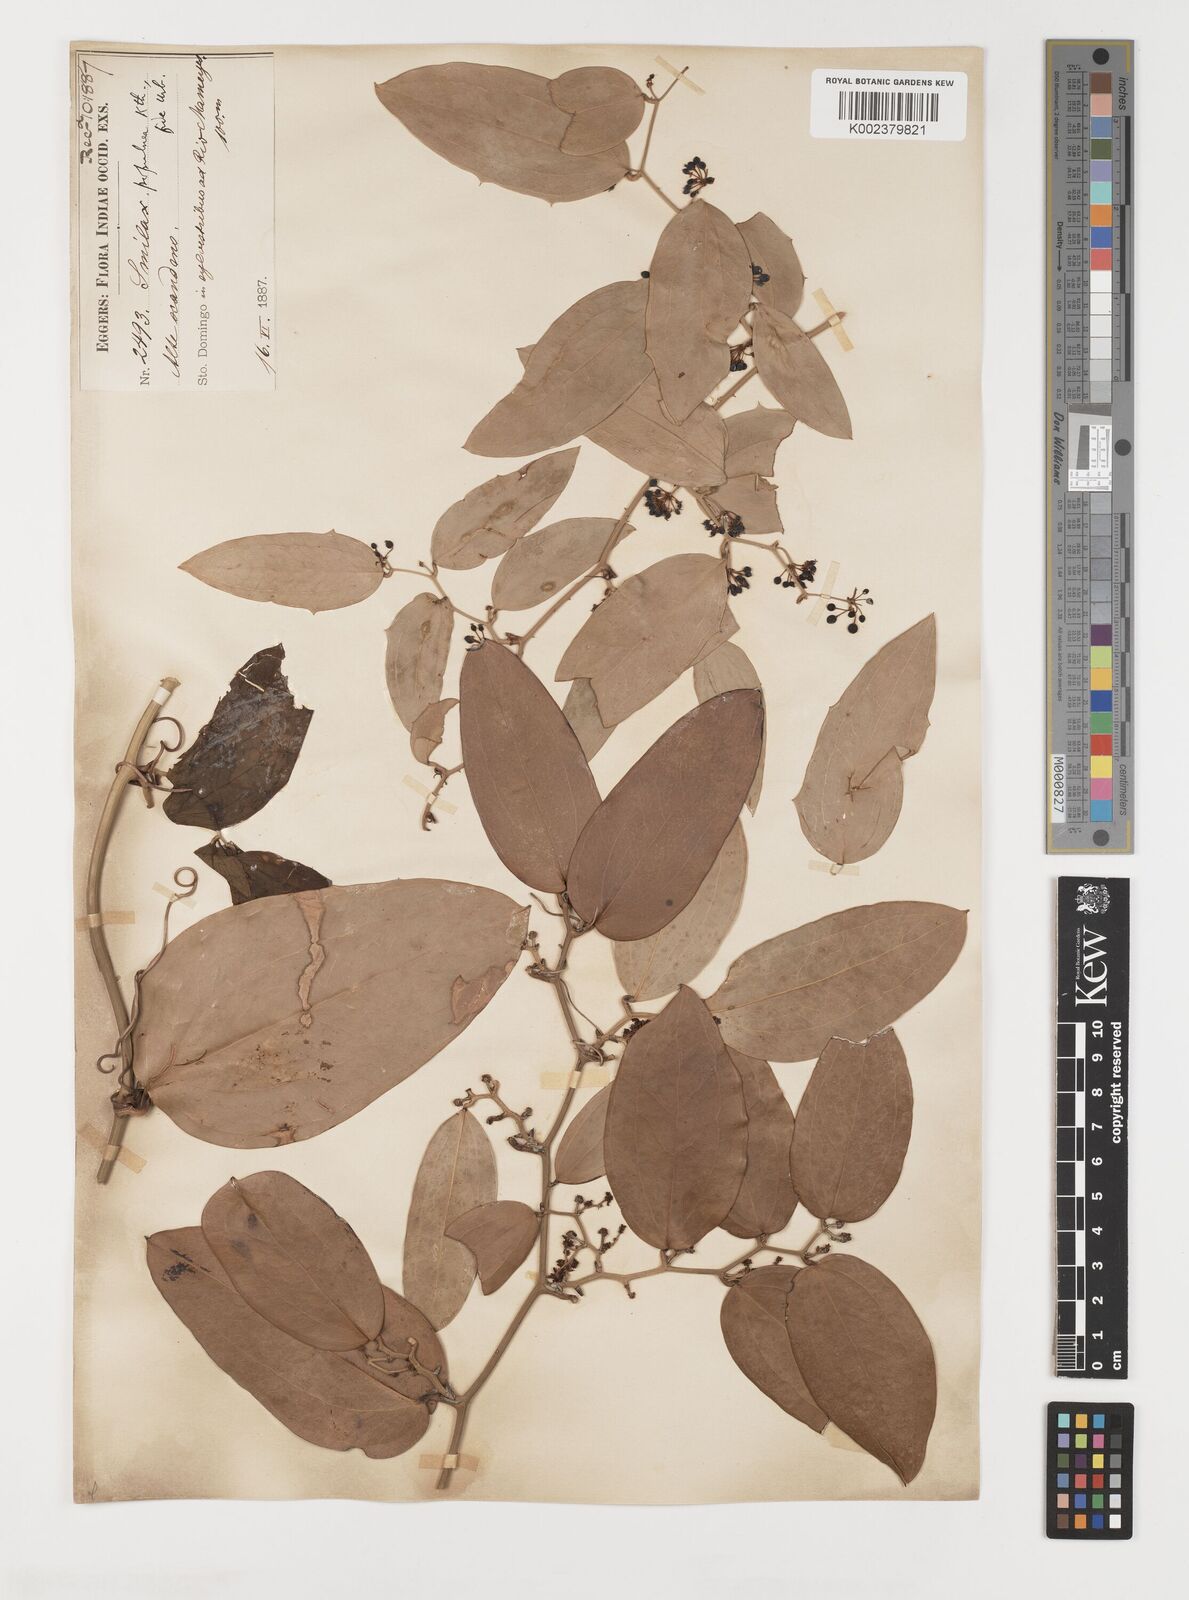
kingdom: Plantae
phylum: Tracheophyta
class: Liliopsida
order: Liliales
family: Smilacaceae
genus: Smilax
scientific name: Smilax populnea
